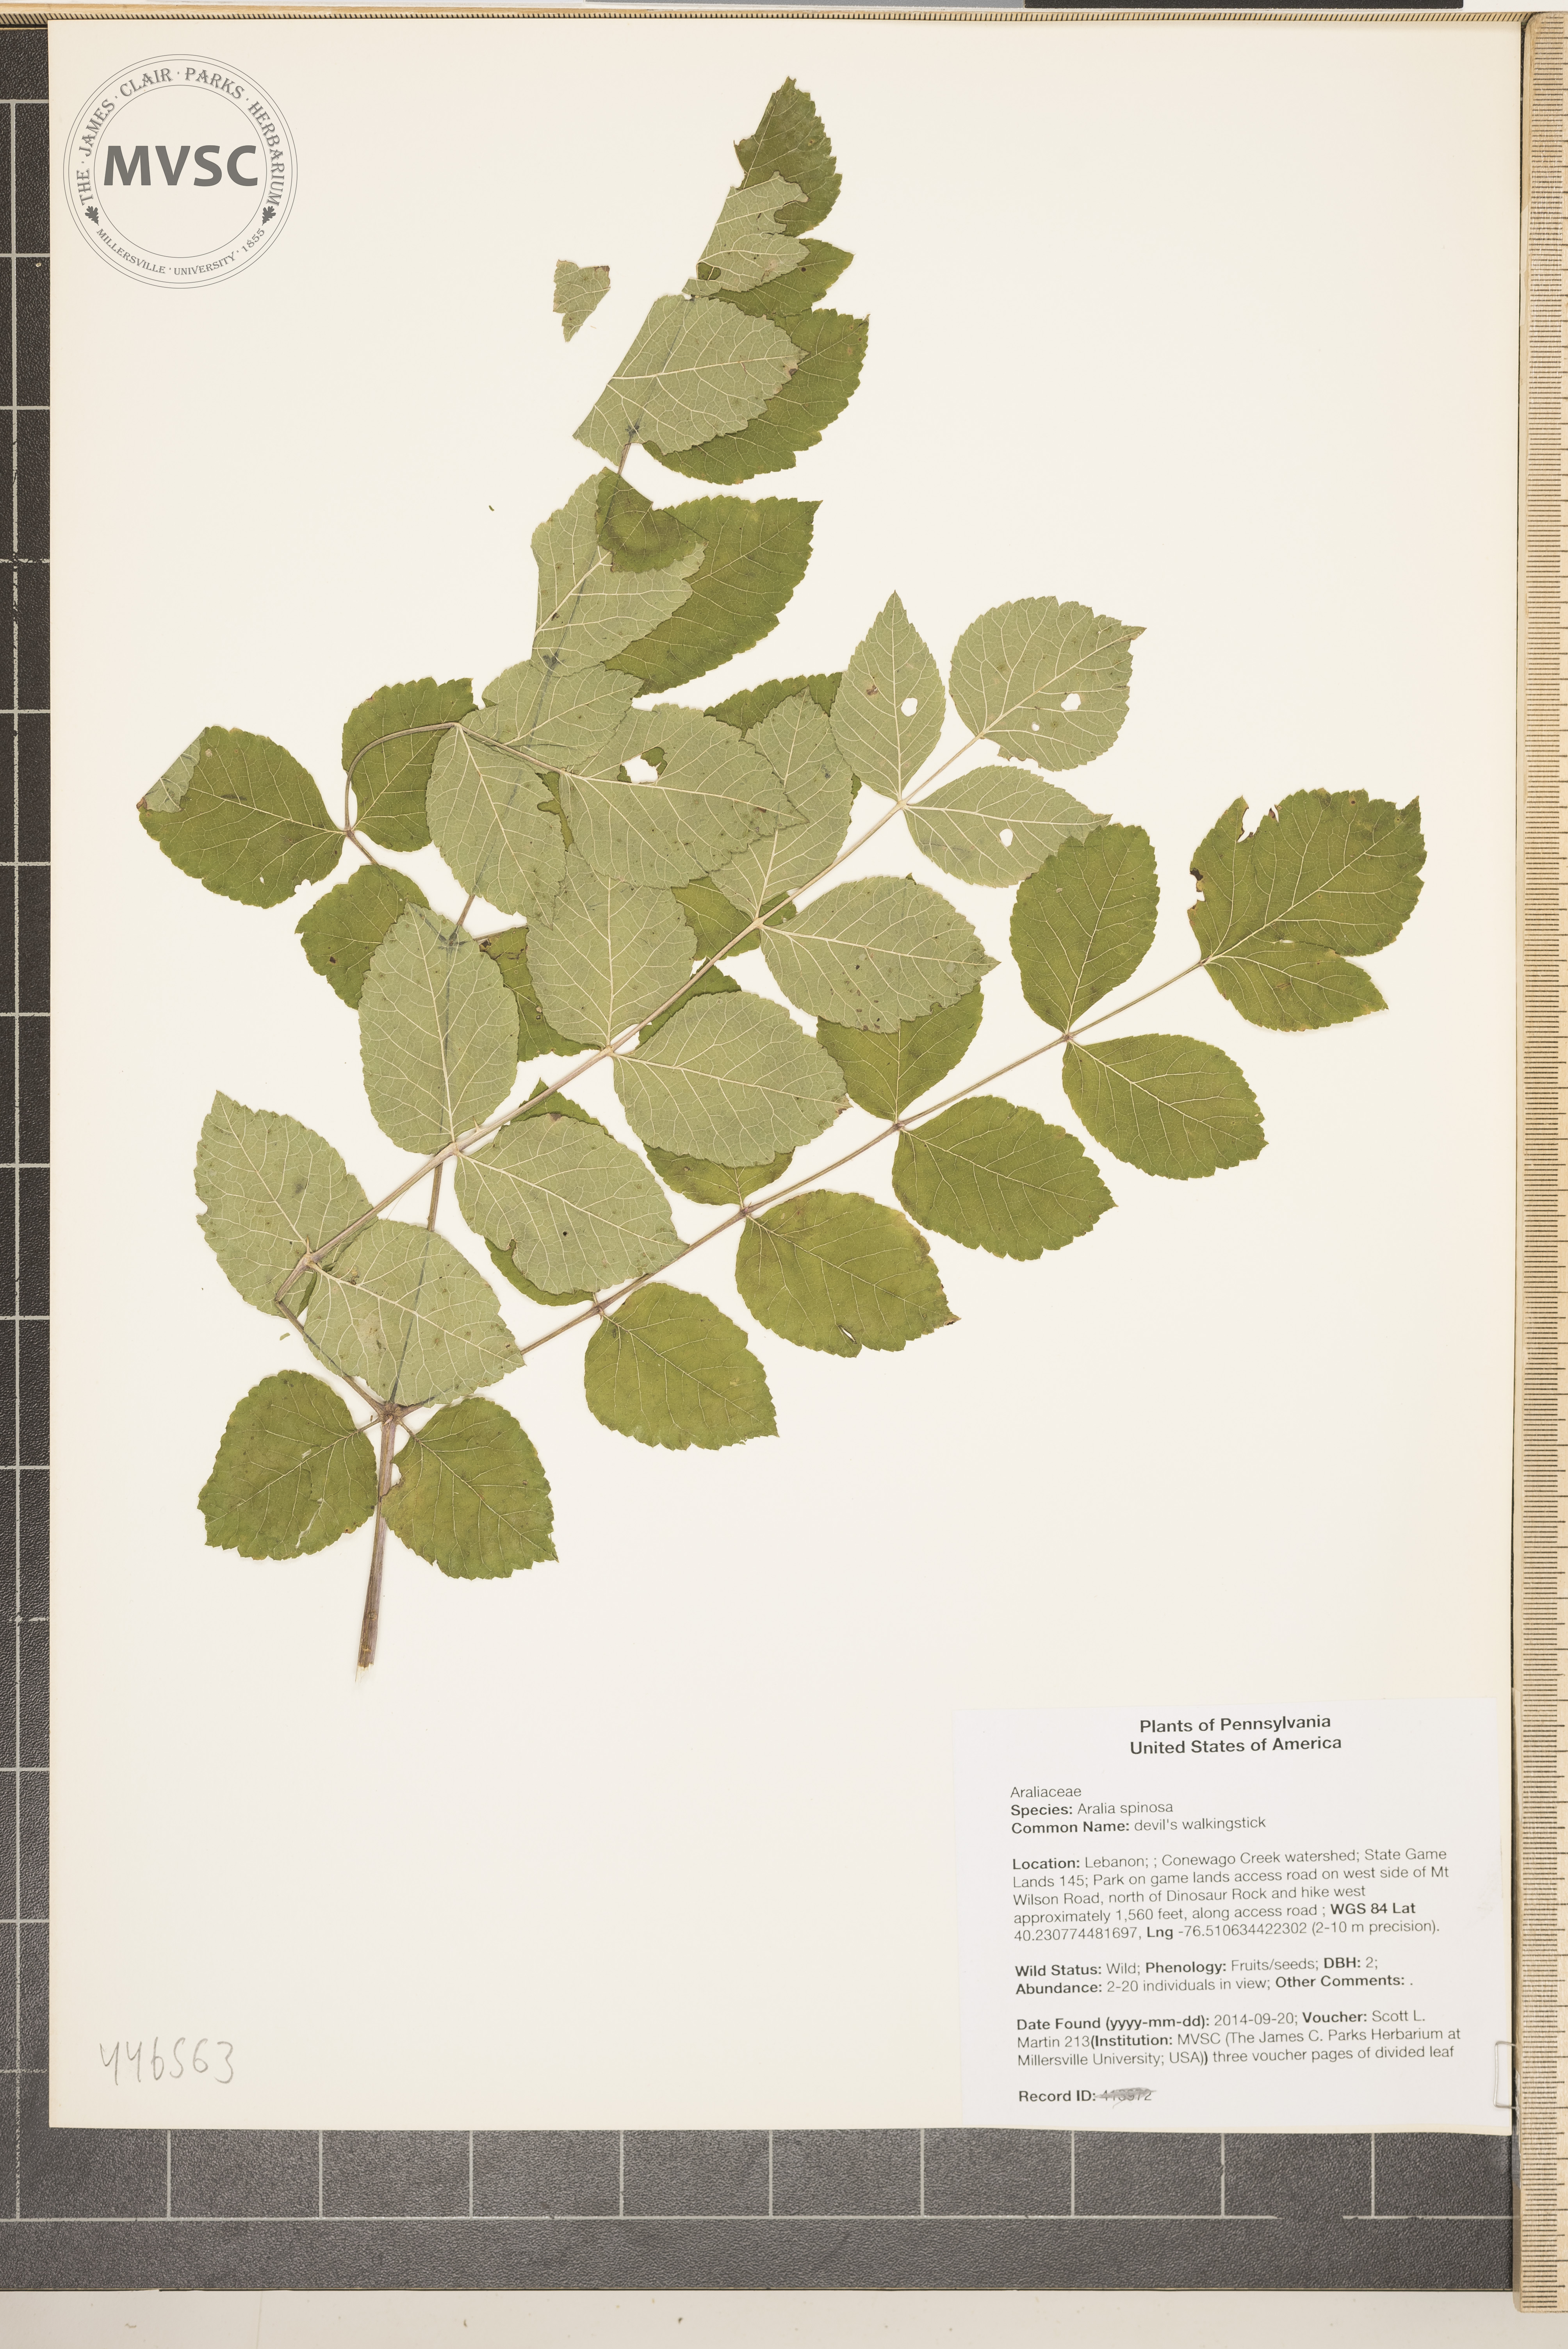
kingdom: Plantae
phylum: Tracheophyta
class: Magnoliopsida
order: Apiales
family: Araliaceae
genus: Aralia
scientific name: Aralia spinosa
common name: devil's walkingstick
